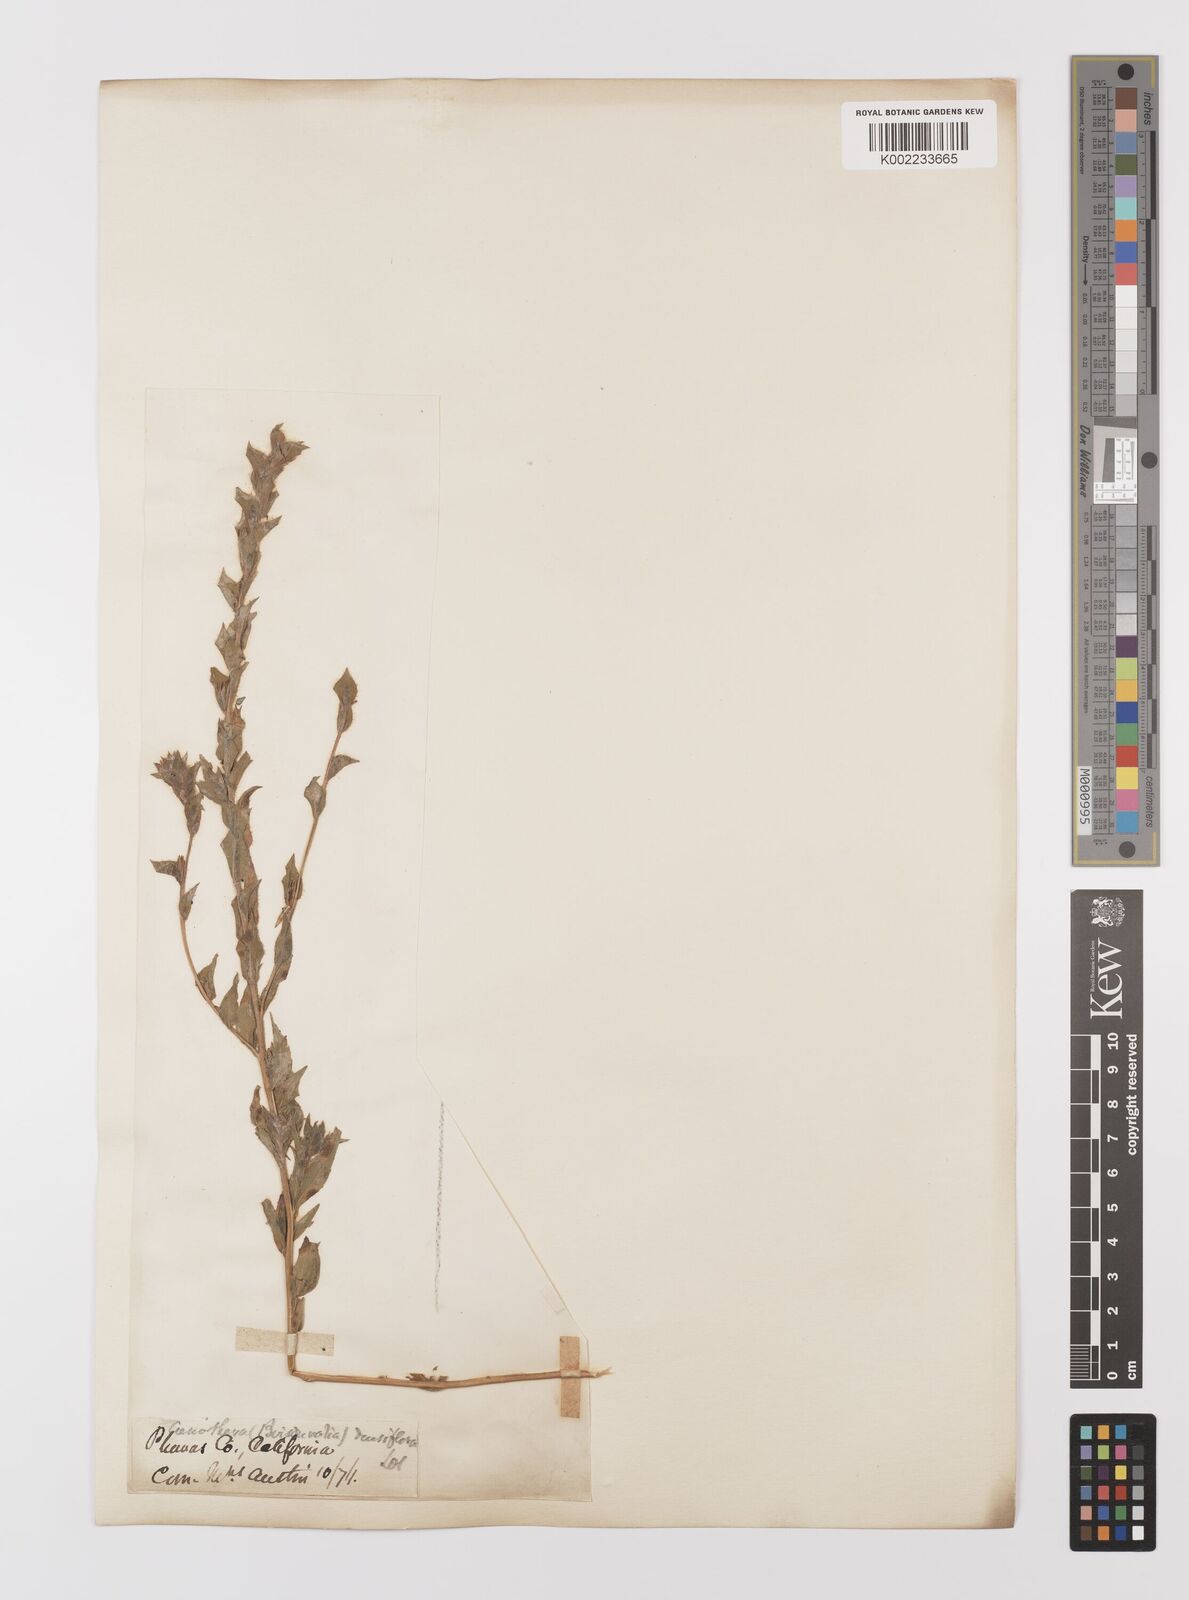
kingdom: Plantae
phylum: Tracheophyta
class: Magnoliopsida
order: Myrtales
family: Onagraceae
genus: Epilobium
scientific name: Epilobium densiflorum
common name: Dense spike-primrose
